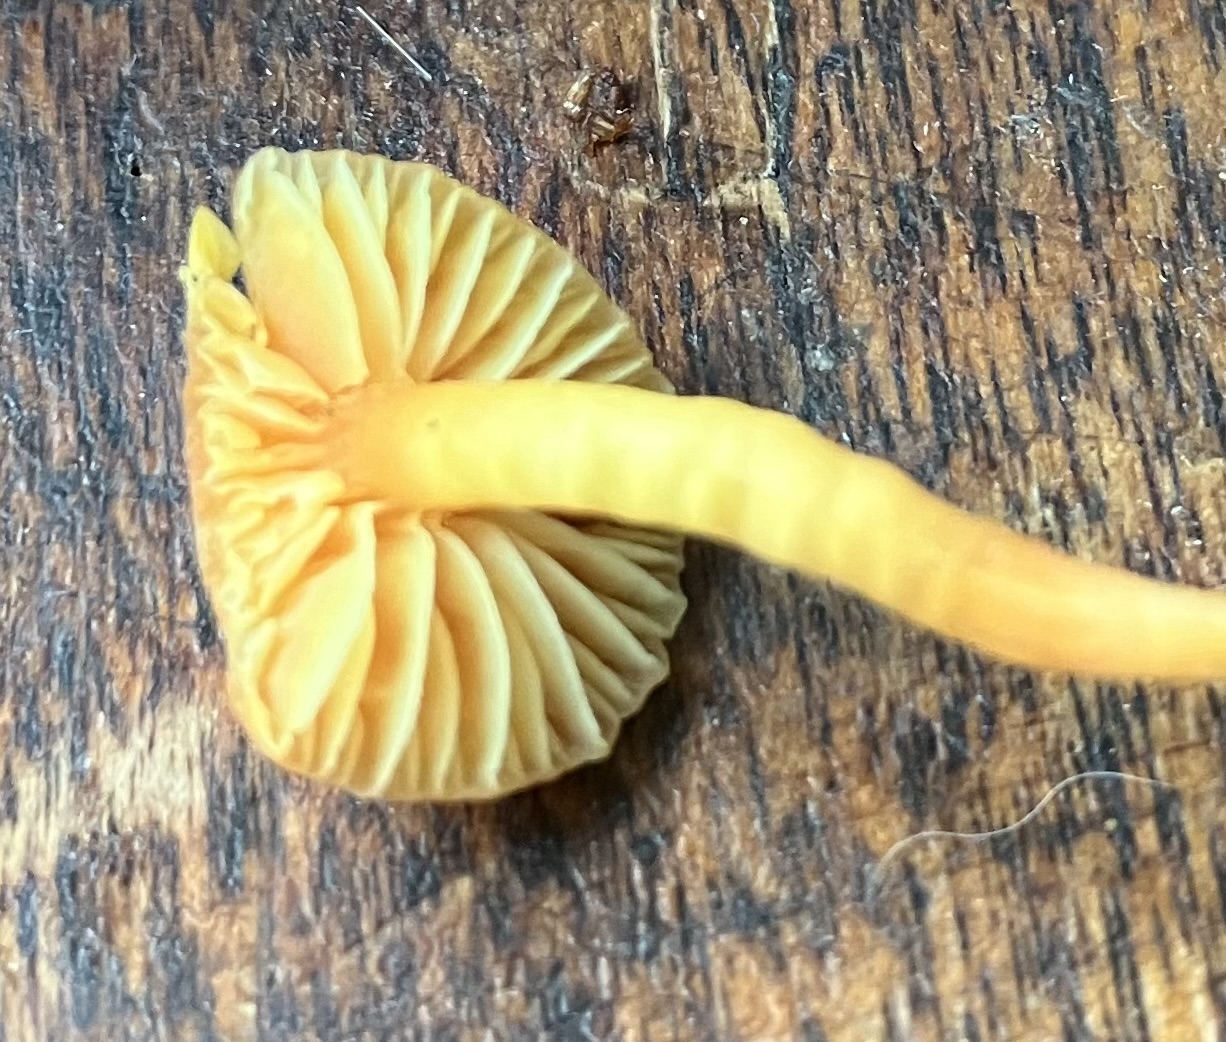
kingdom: Fungi
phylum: Basidiomycota
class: Agaricomycetes
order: Agaricales
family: Hygrophoraceae
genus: Hygrocybe
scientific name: Hygrocybe mucronella
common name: bitter vokshat
